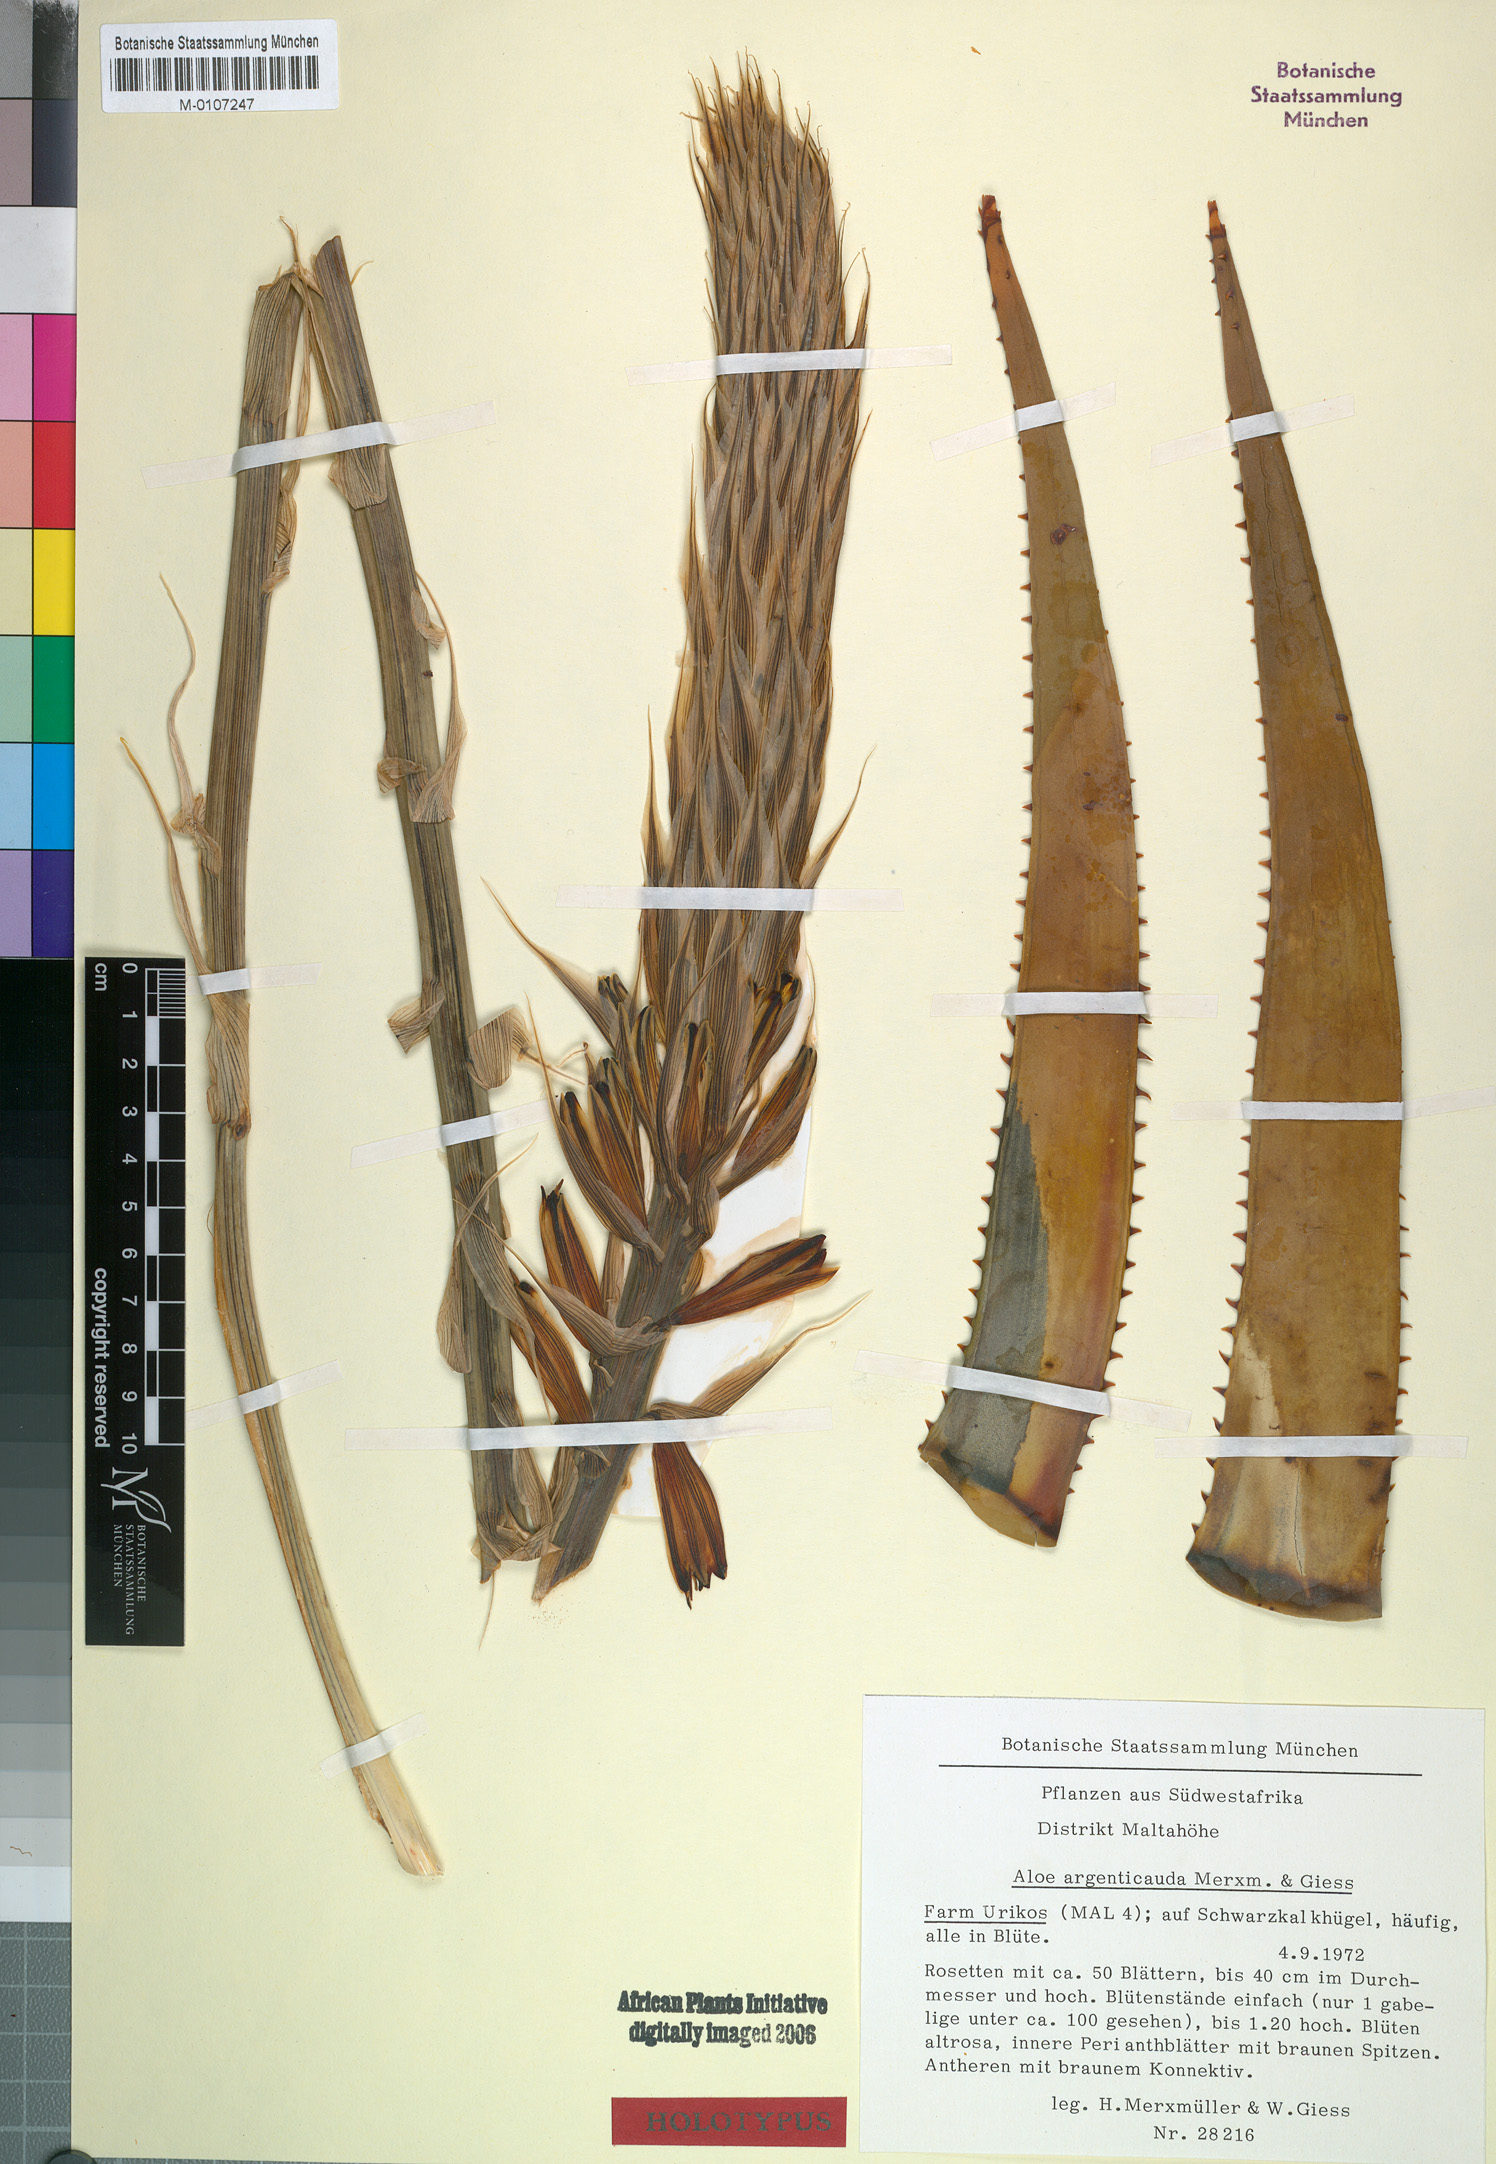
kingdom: Plantae
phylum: Tracheophyta
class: Liliopsida
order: Asparagales
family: Asphodelaceae
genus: Aloe
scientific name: Aloe argenticauda
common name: Silver-tailed aloe
